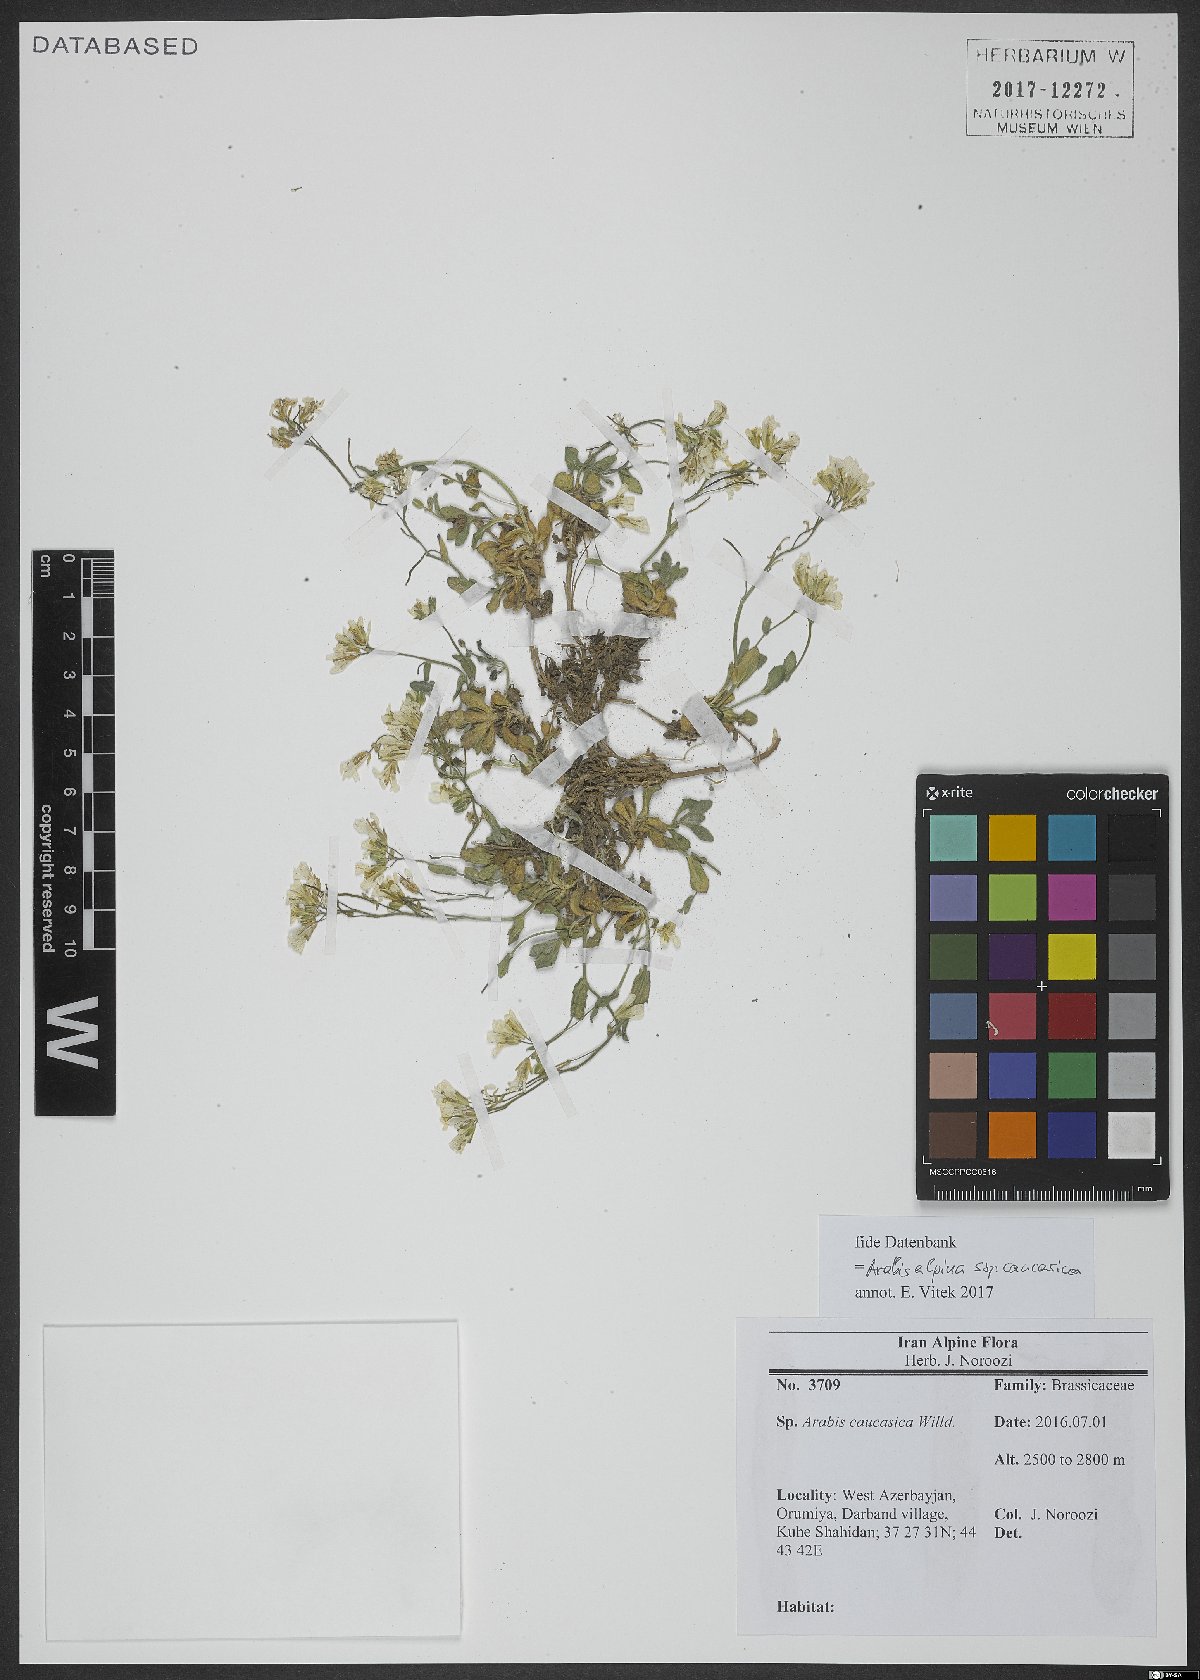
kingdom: Plantae
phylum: Tracheophyta
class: Magnoliopsida
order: Brassicales
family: Brassicaceae
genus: Arabis
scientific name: Arabis caucasica
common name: Gray rockcress
